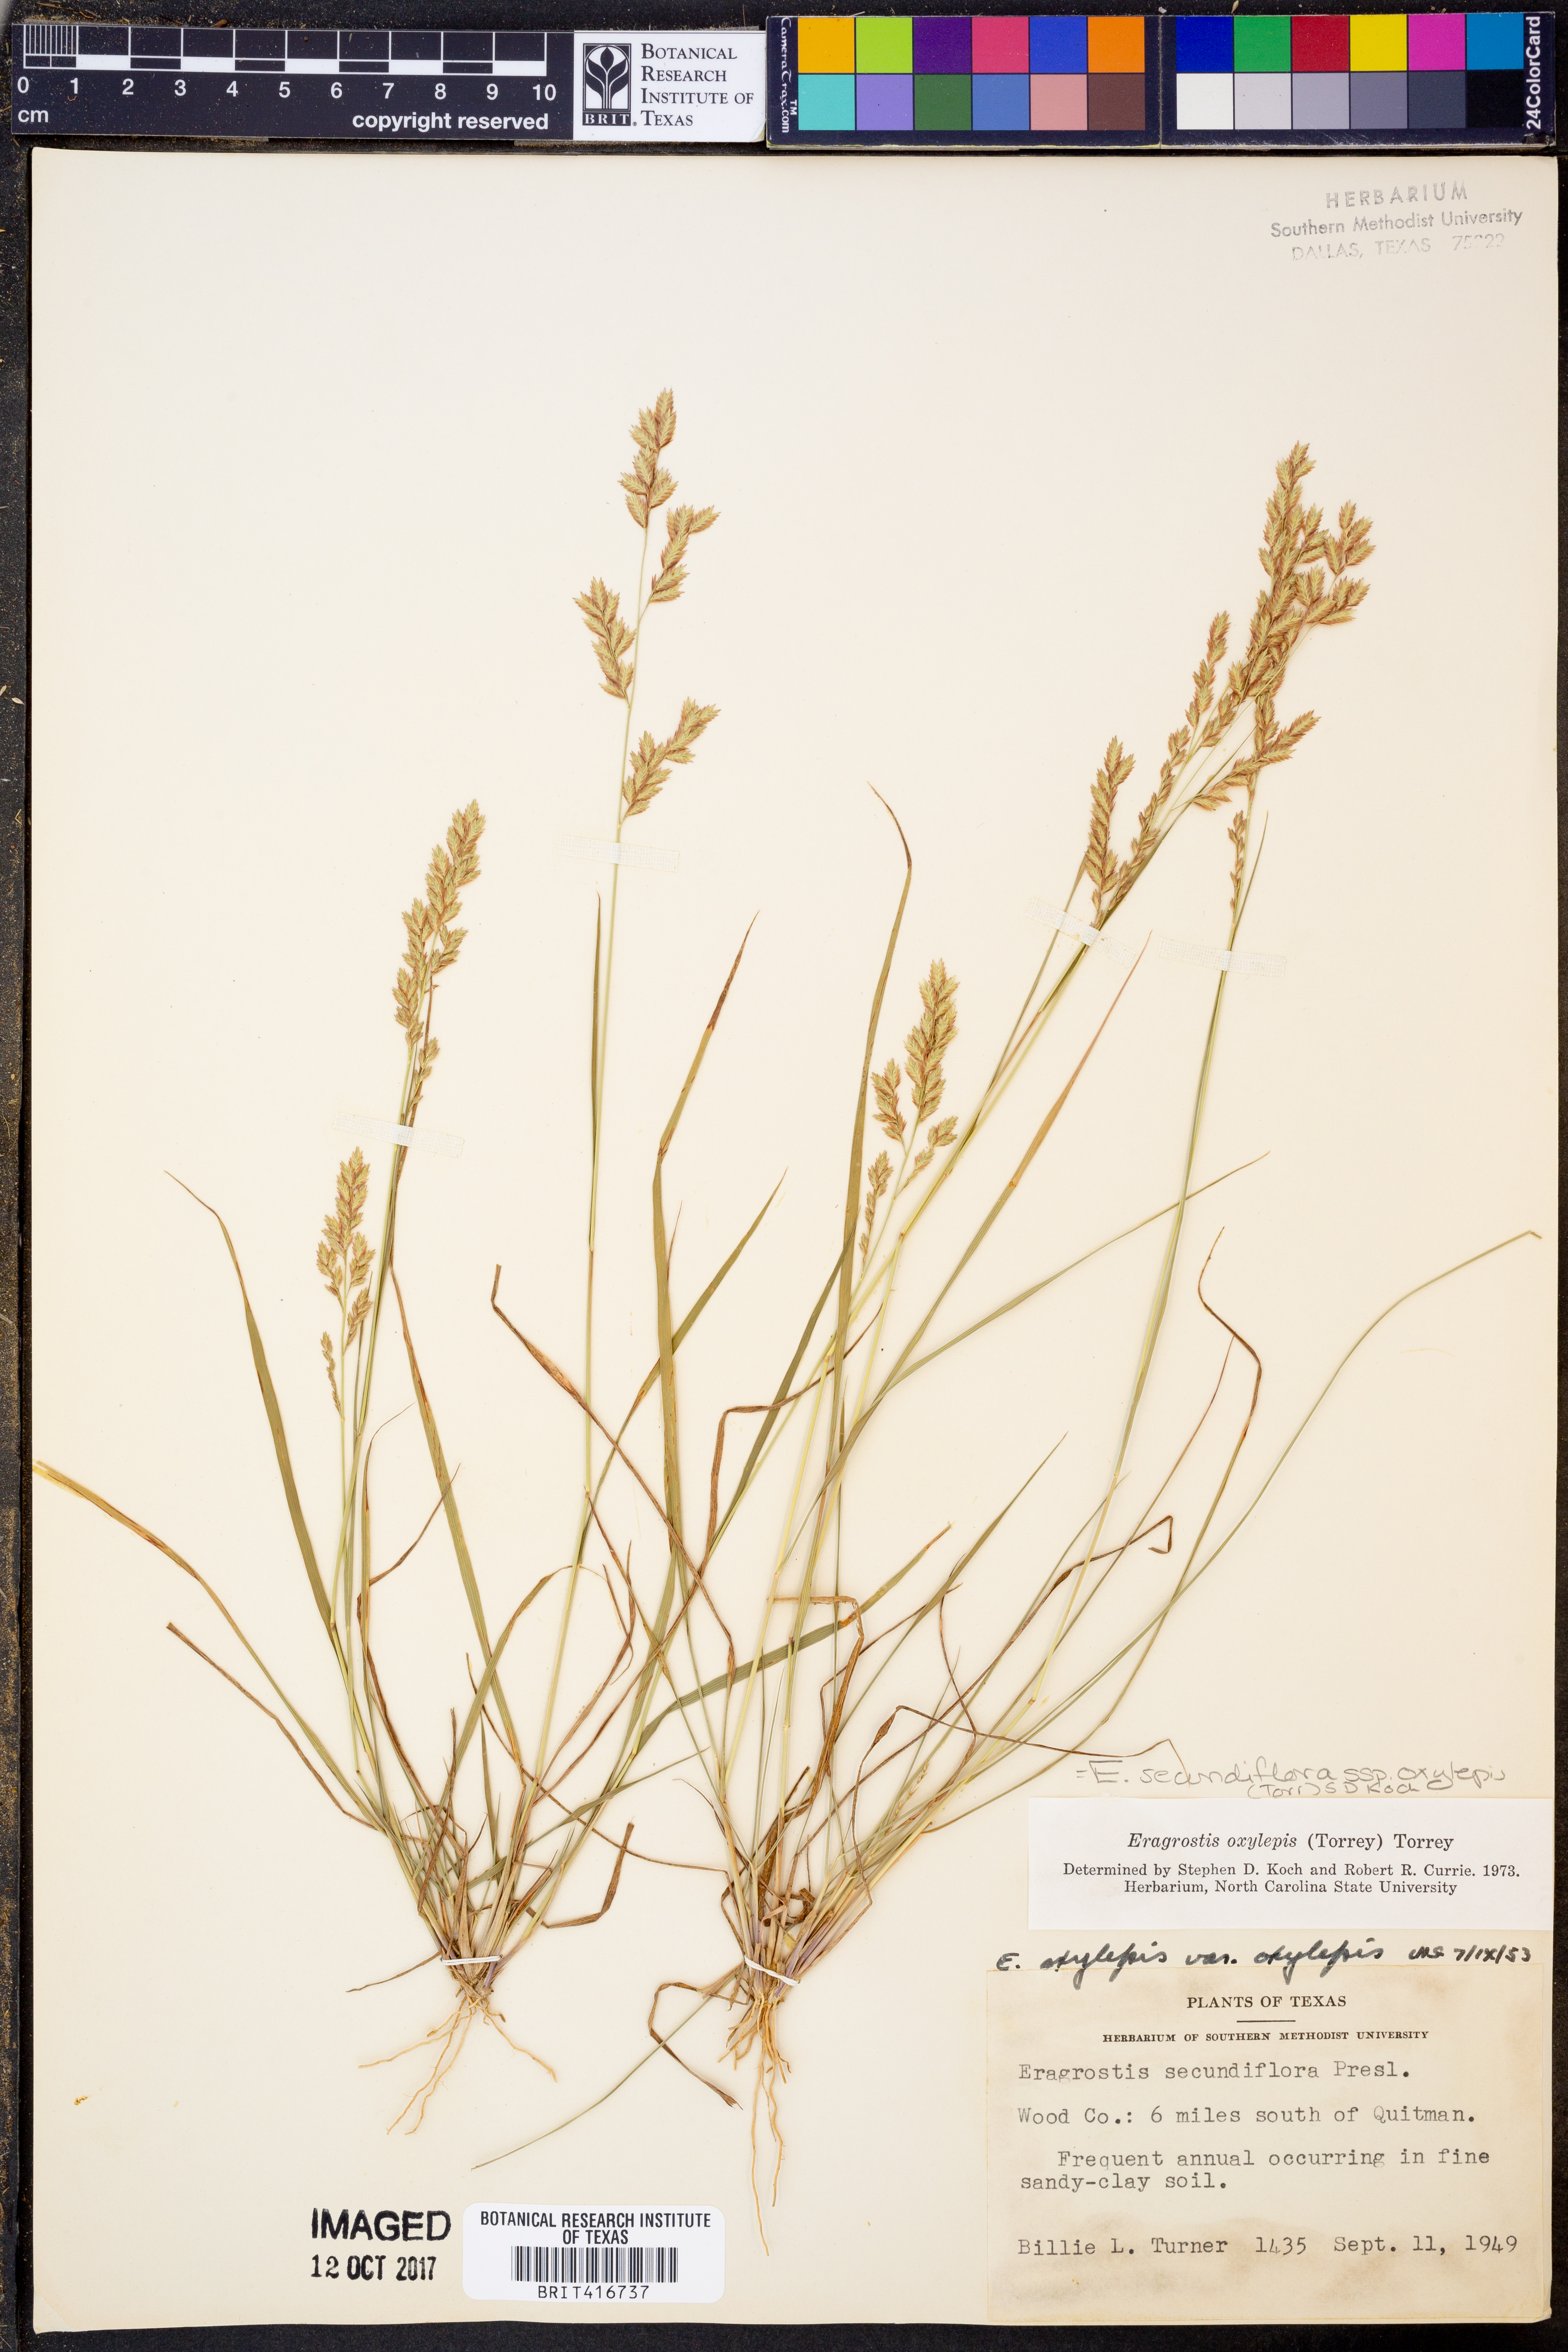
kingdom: Plantae
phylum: Tracheophyta
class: Liliopsida
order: Poales
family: Poaceae
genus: Eragrostis
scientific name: Eragrostis secundiflora
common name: Red love grass
